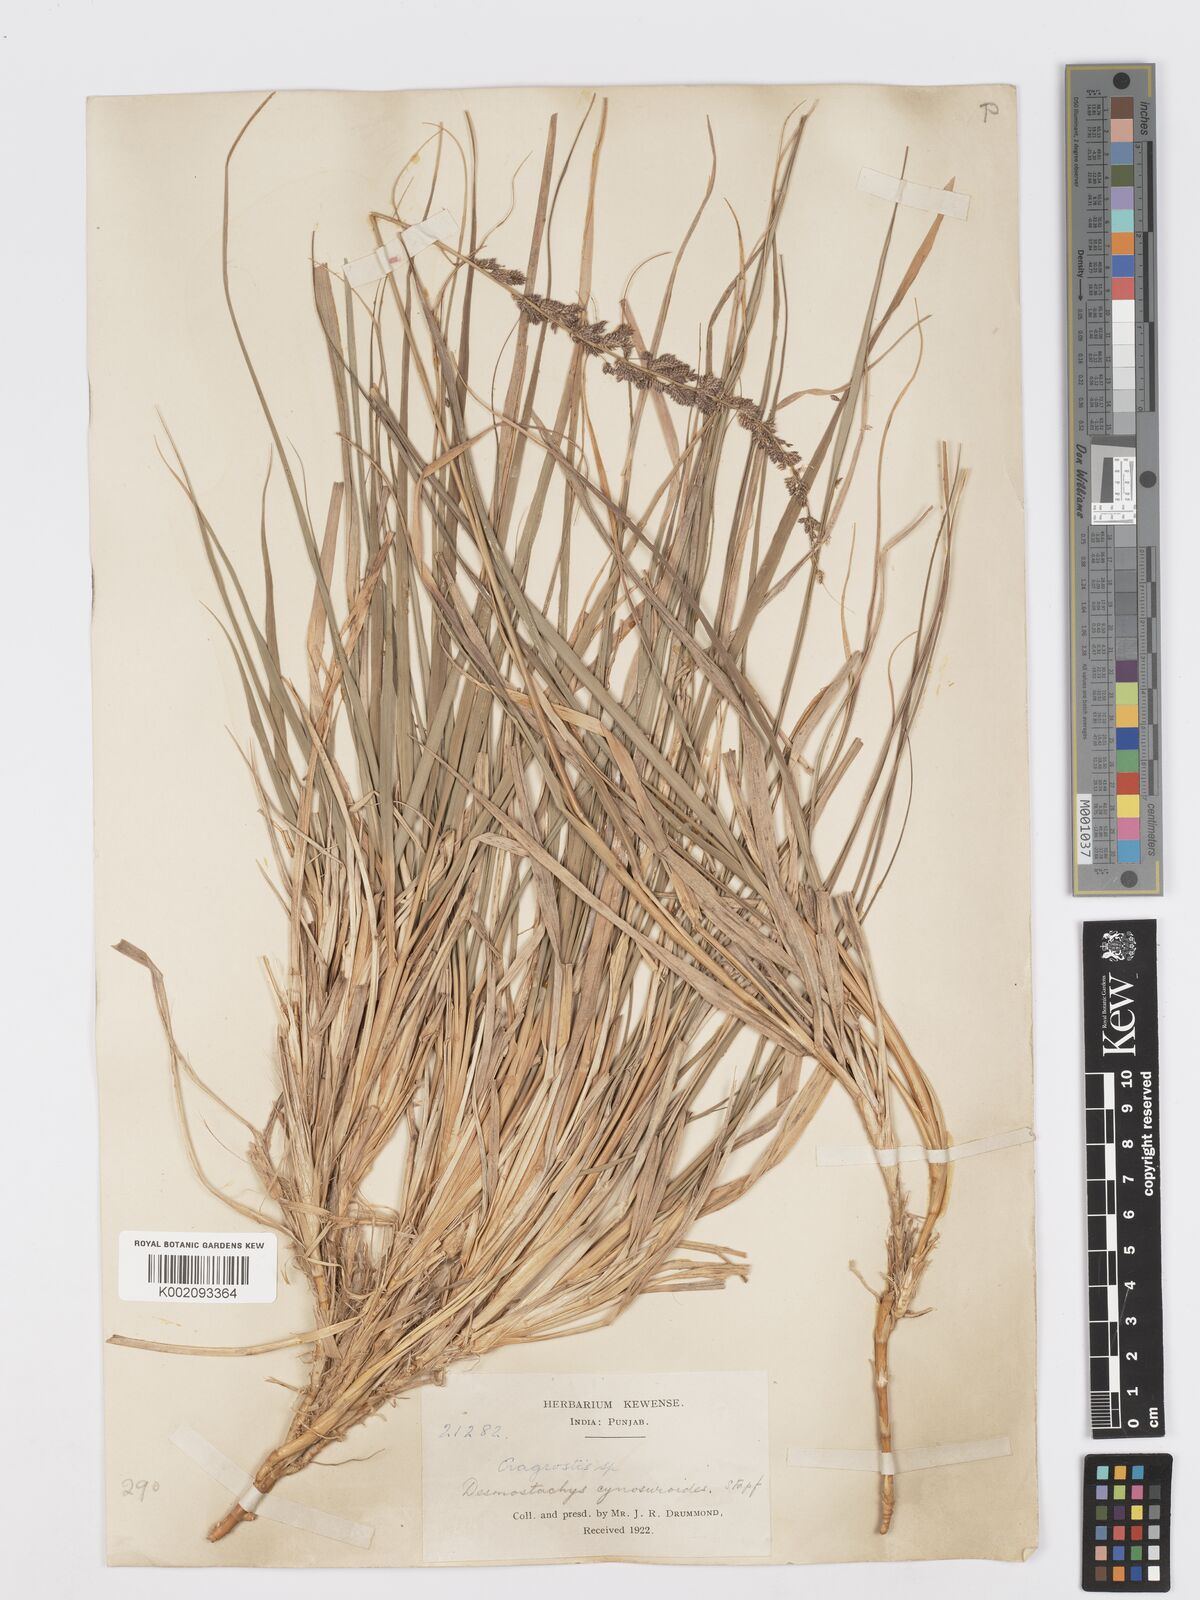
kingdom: Plantae
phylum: Tracheophyta
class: Liliopsida
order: Poales
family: Poaceae
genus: Desmostachya
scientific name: Desmostachya bipinnata
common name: Crowfoot grass
